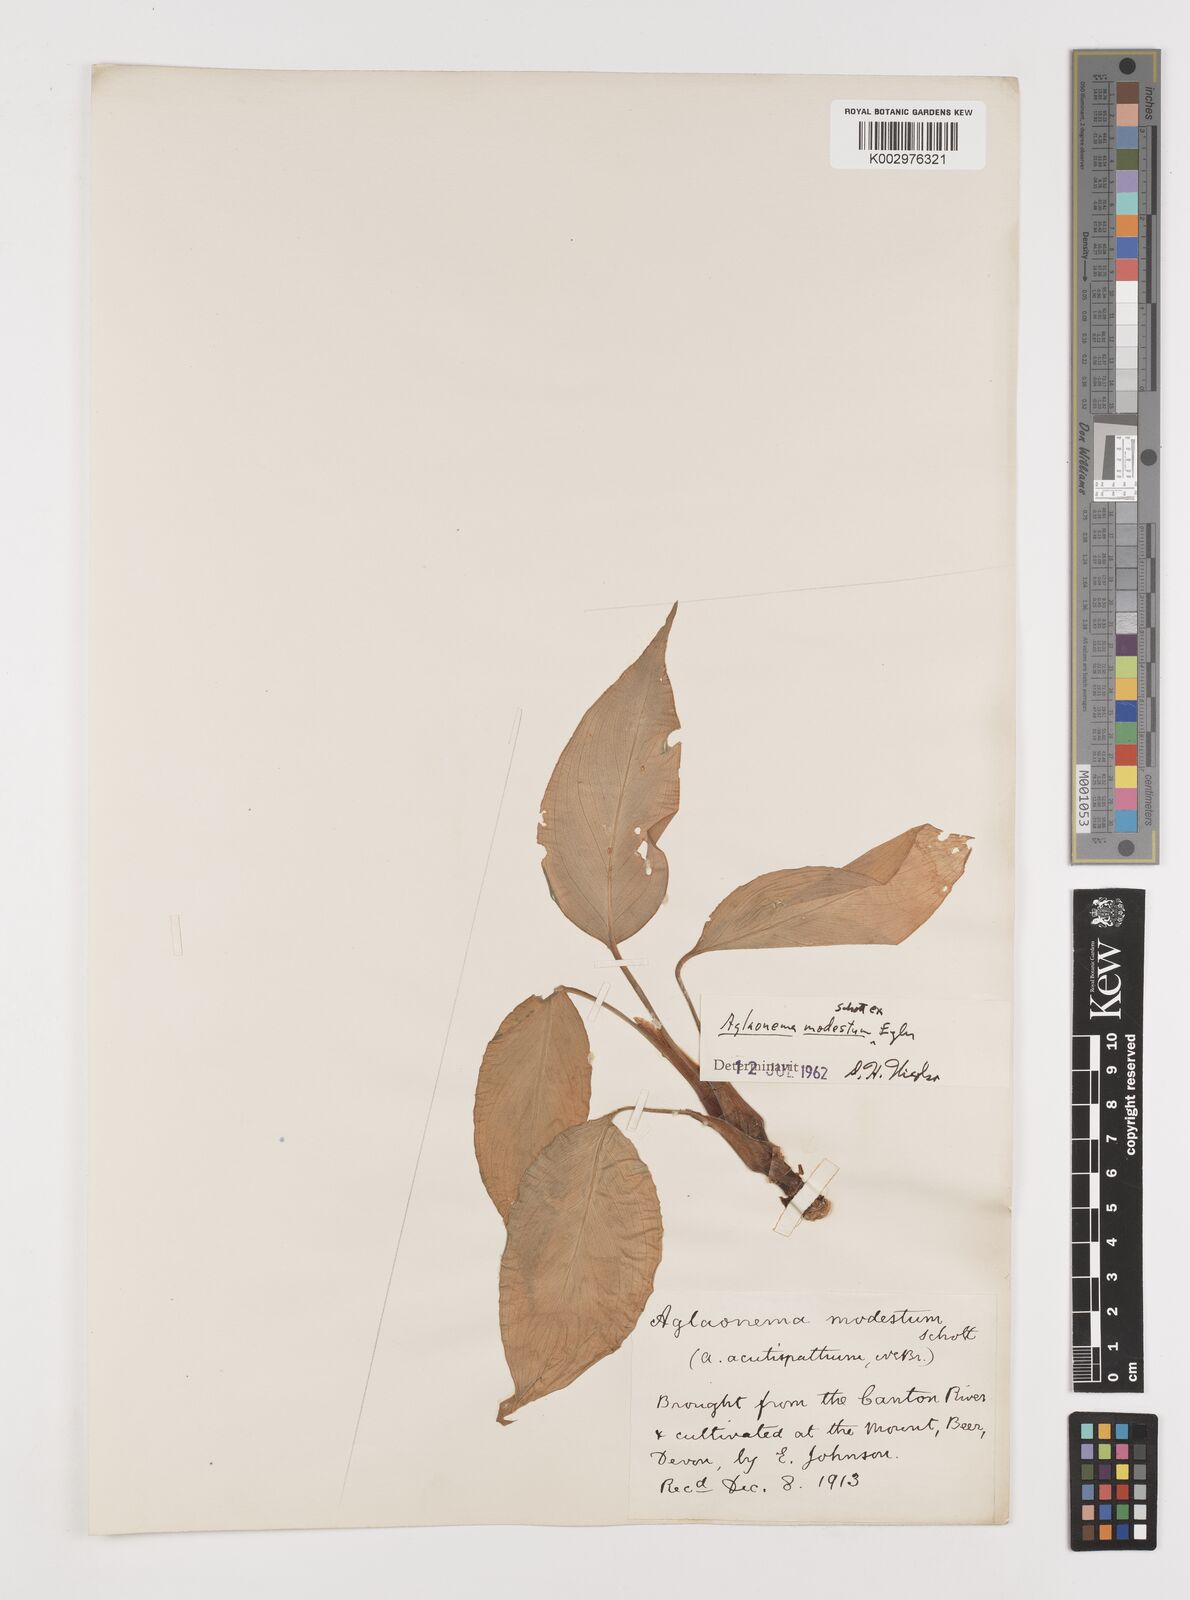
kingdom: Plantae
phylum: Tracheophyta
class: Liliopsida
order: Alismatales
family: Araceae
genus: Aglaonema
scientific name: Aglaonema modestum
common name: Chinese evergreen
